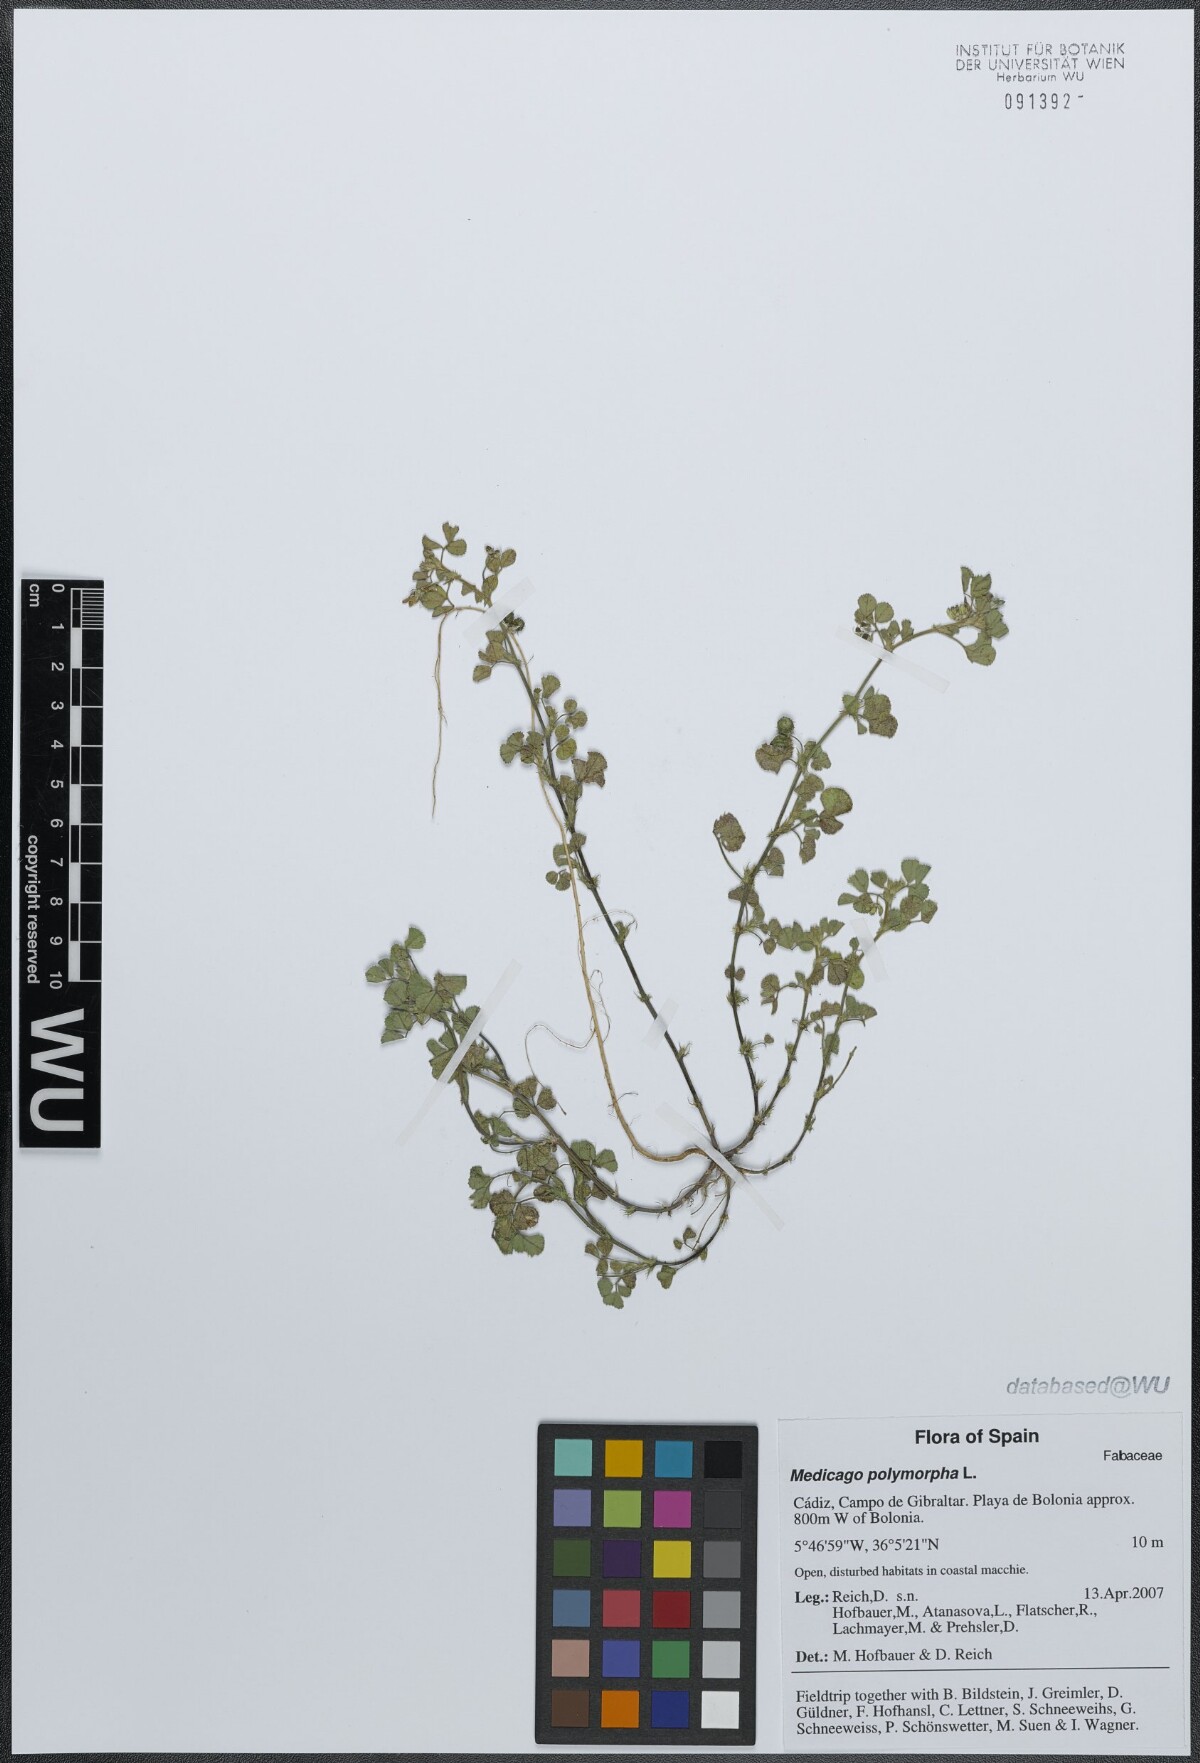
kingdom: Plantae
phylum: Tracheophyta
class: Magnoliopsida
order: Fabales
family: Fabaceae
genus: Medicago
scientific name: Medicago polymorpha
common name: Burclover
